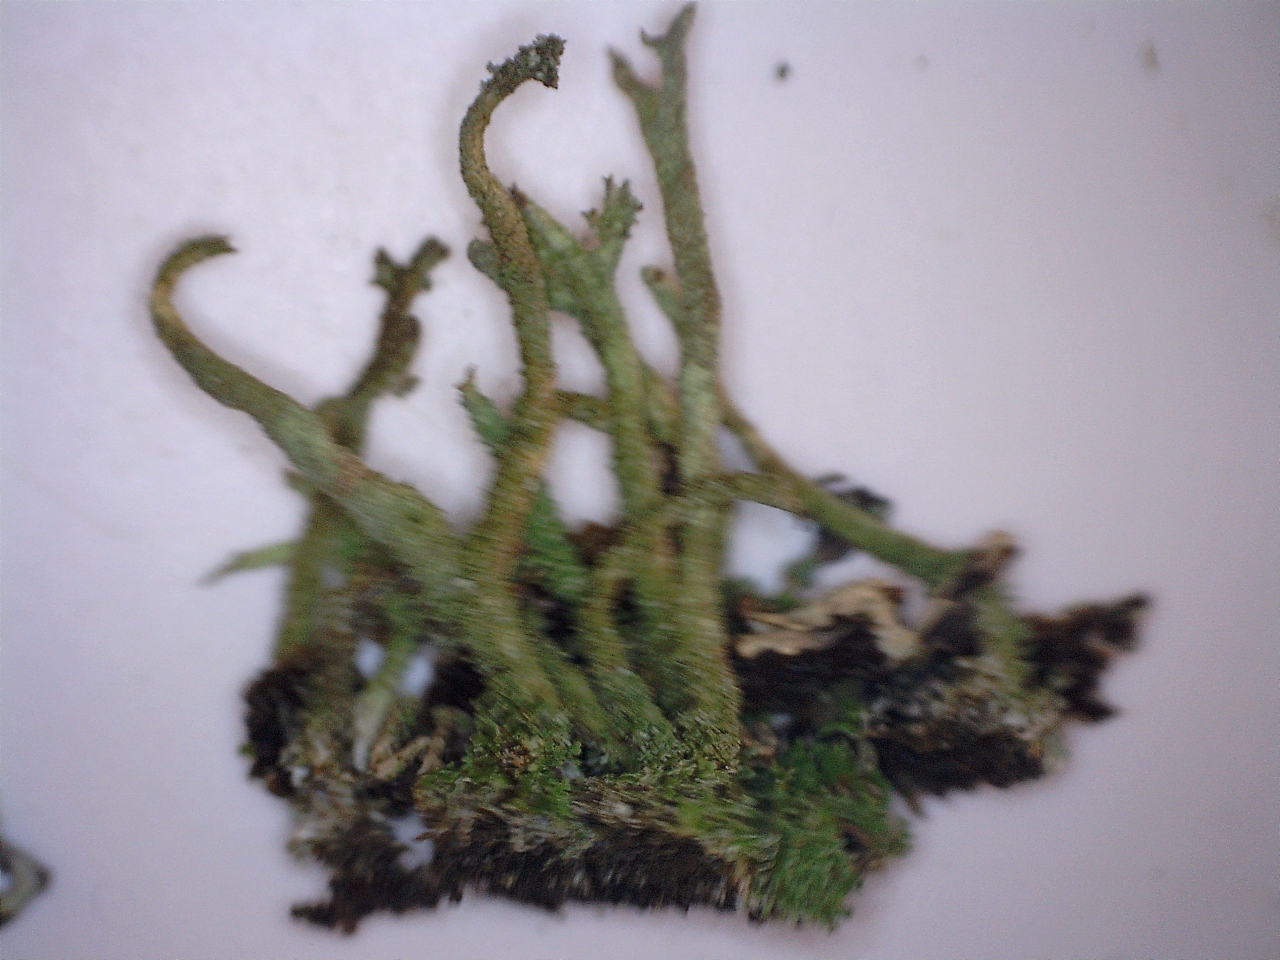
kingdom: Fungi
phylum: Ascomycota
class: Lecanoromycetes
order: Lecanorales
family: Cladoniaceae
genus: Cladonia
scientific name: Cladonia glauca
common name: grågrøn bægerlav
